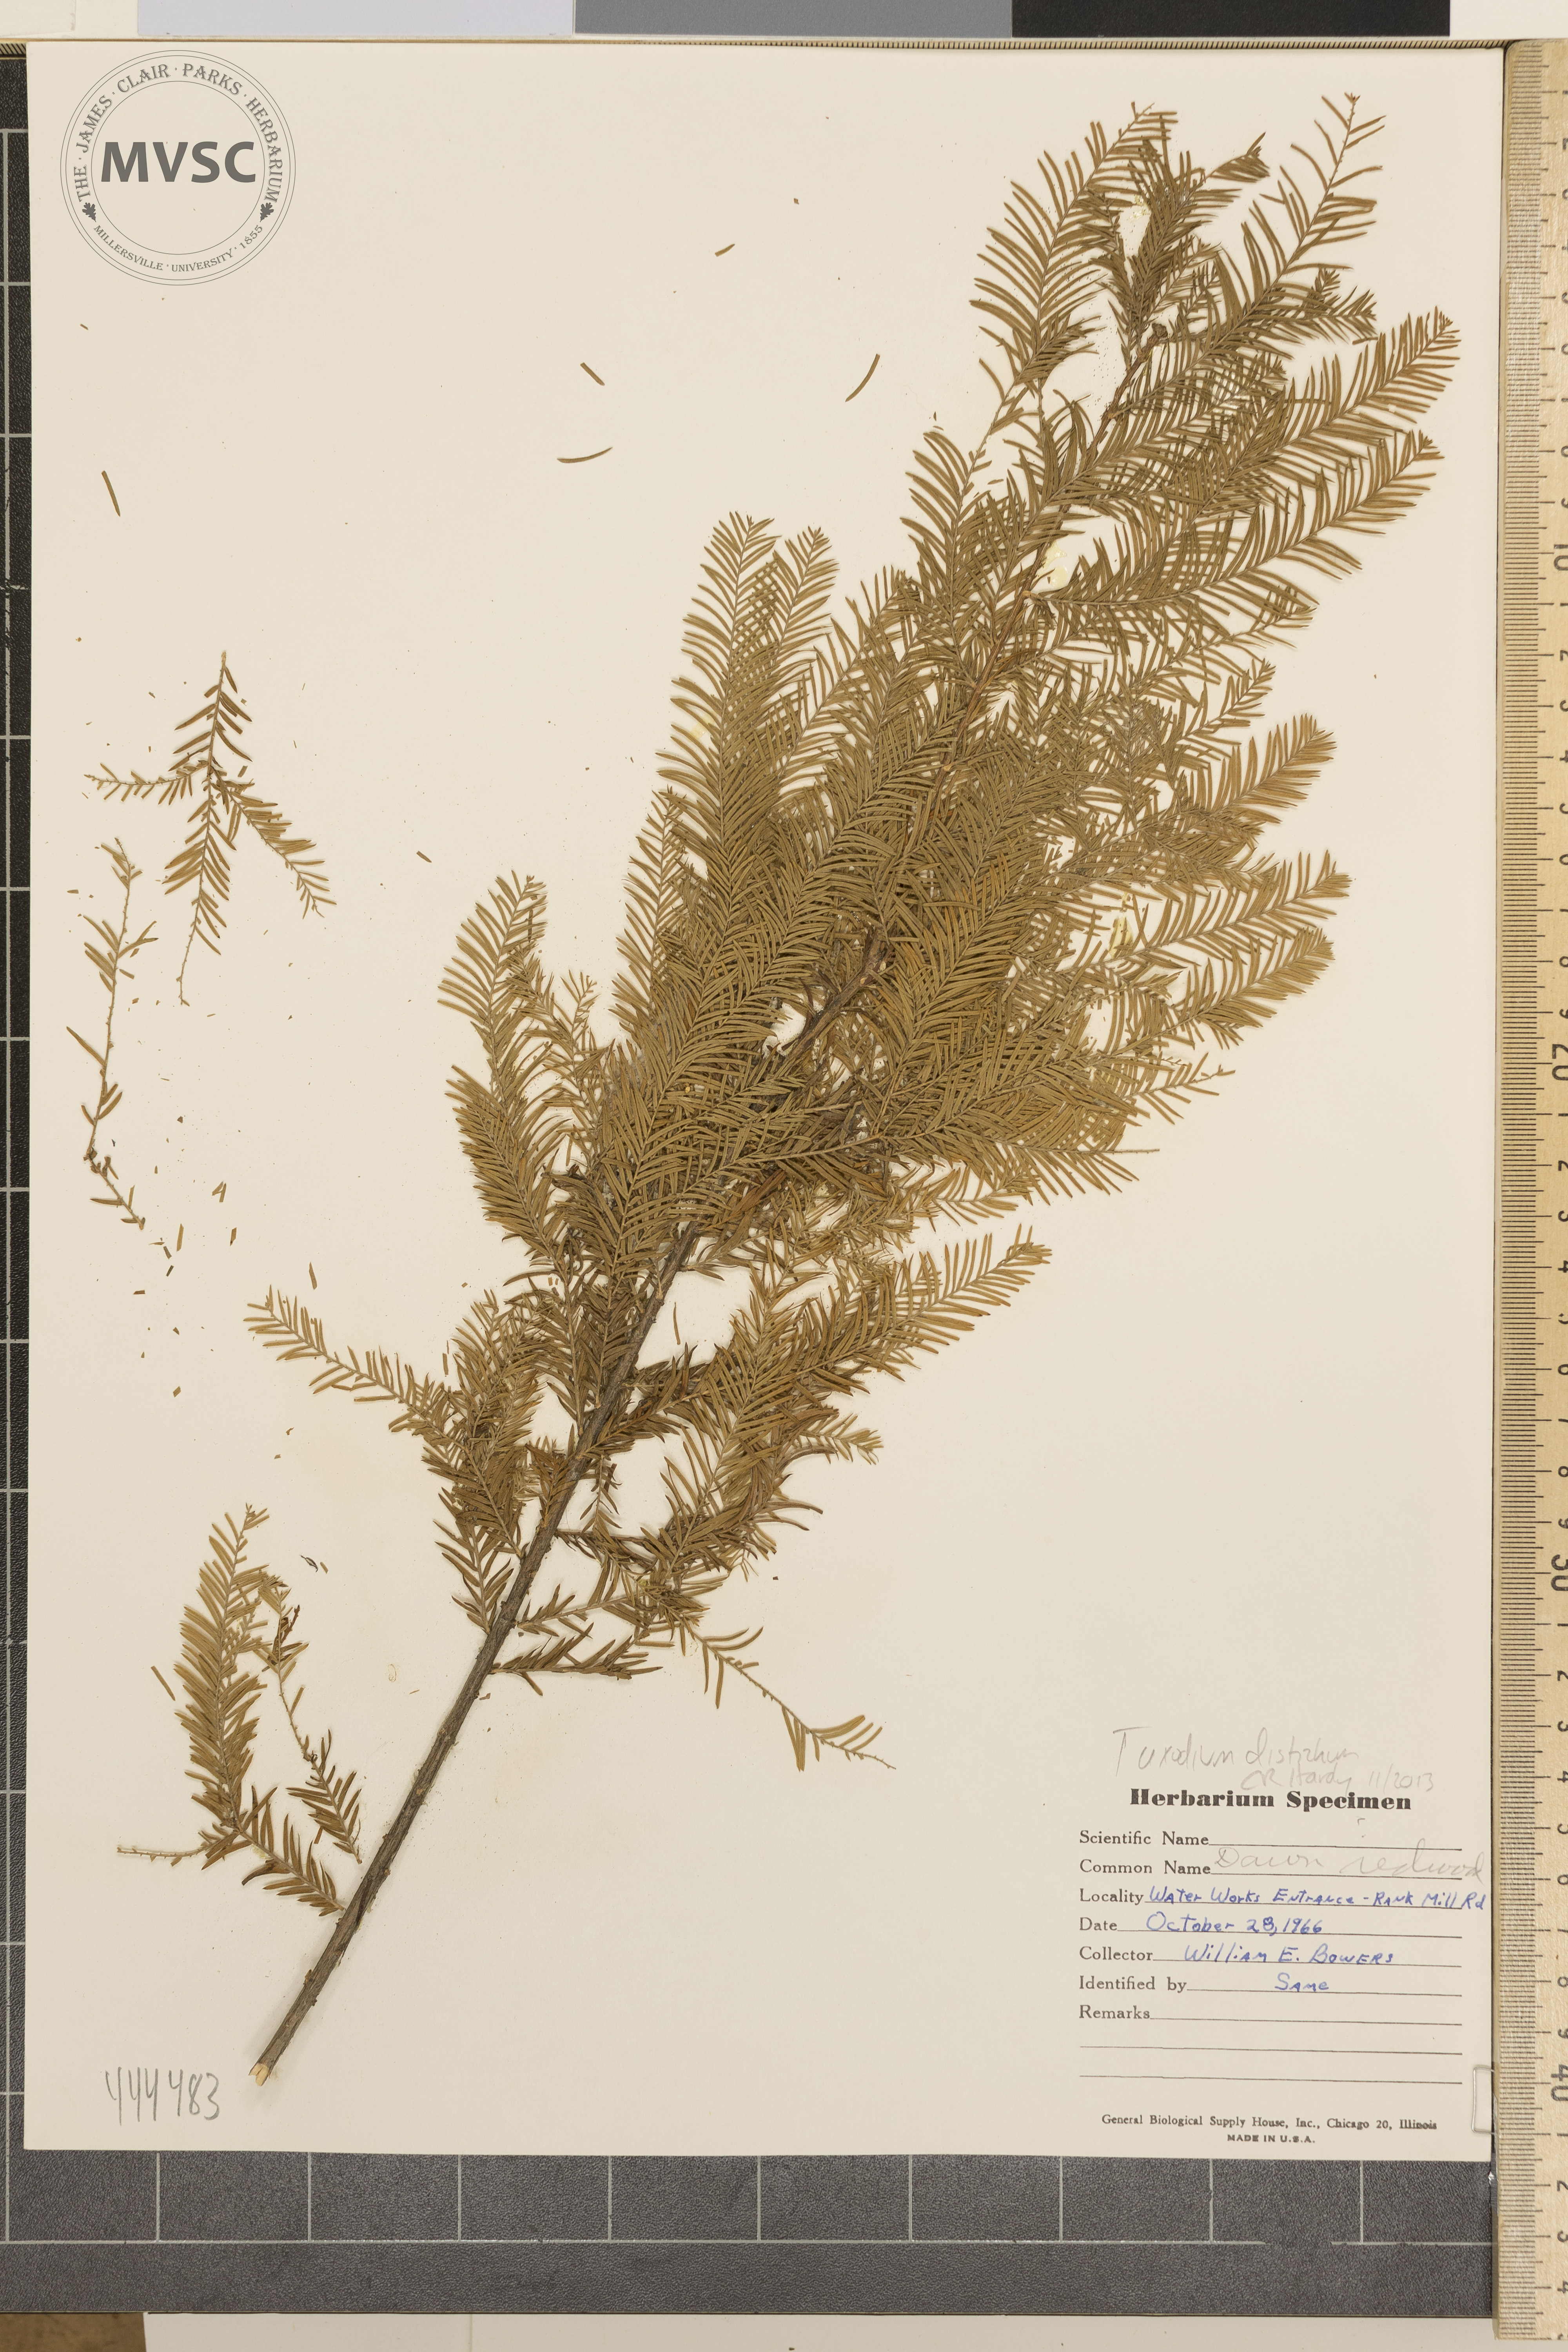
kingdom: Plantae
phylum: Tracheophyta
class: Pinopsida
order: Pinales
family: Cupressaceae
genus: Taxodium
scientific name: Taxodium distichum
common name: Bald cypress
